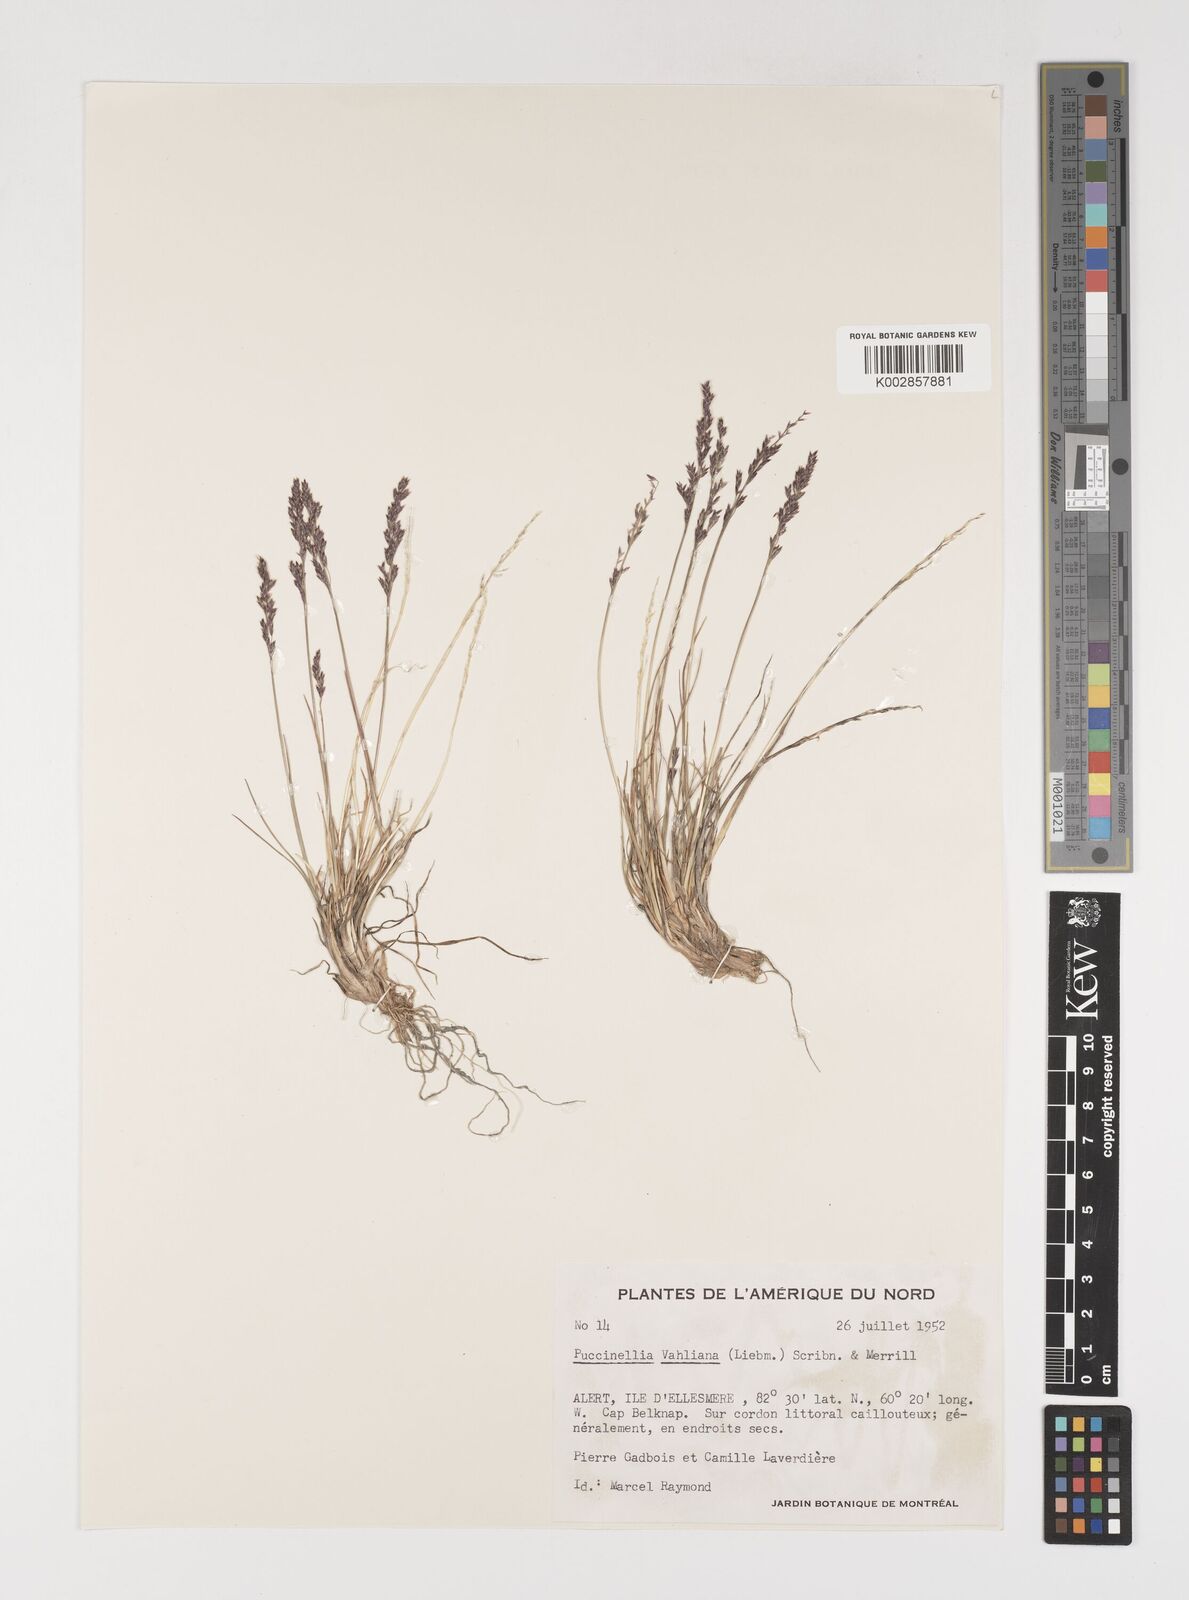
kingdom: Plantae
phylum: Tracheophyta
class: Liliopsida
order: Poales
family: Poaceae
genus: Puccinellia
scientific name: Puccinellia vahliana
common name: Vahl's alkaligrass
